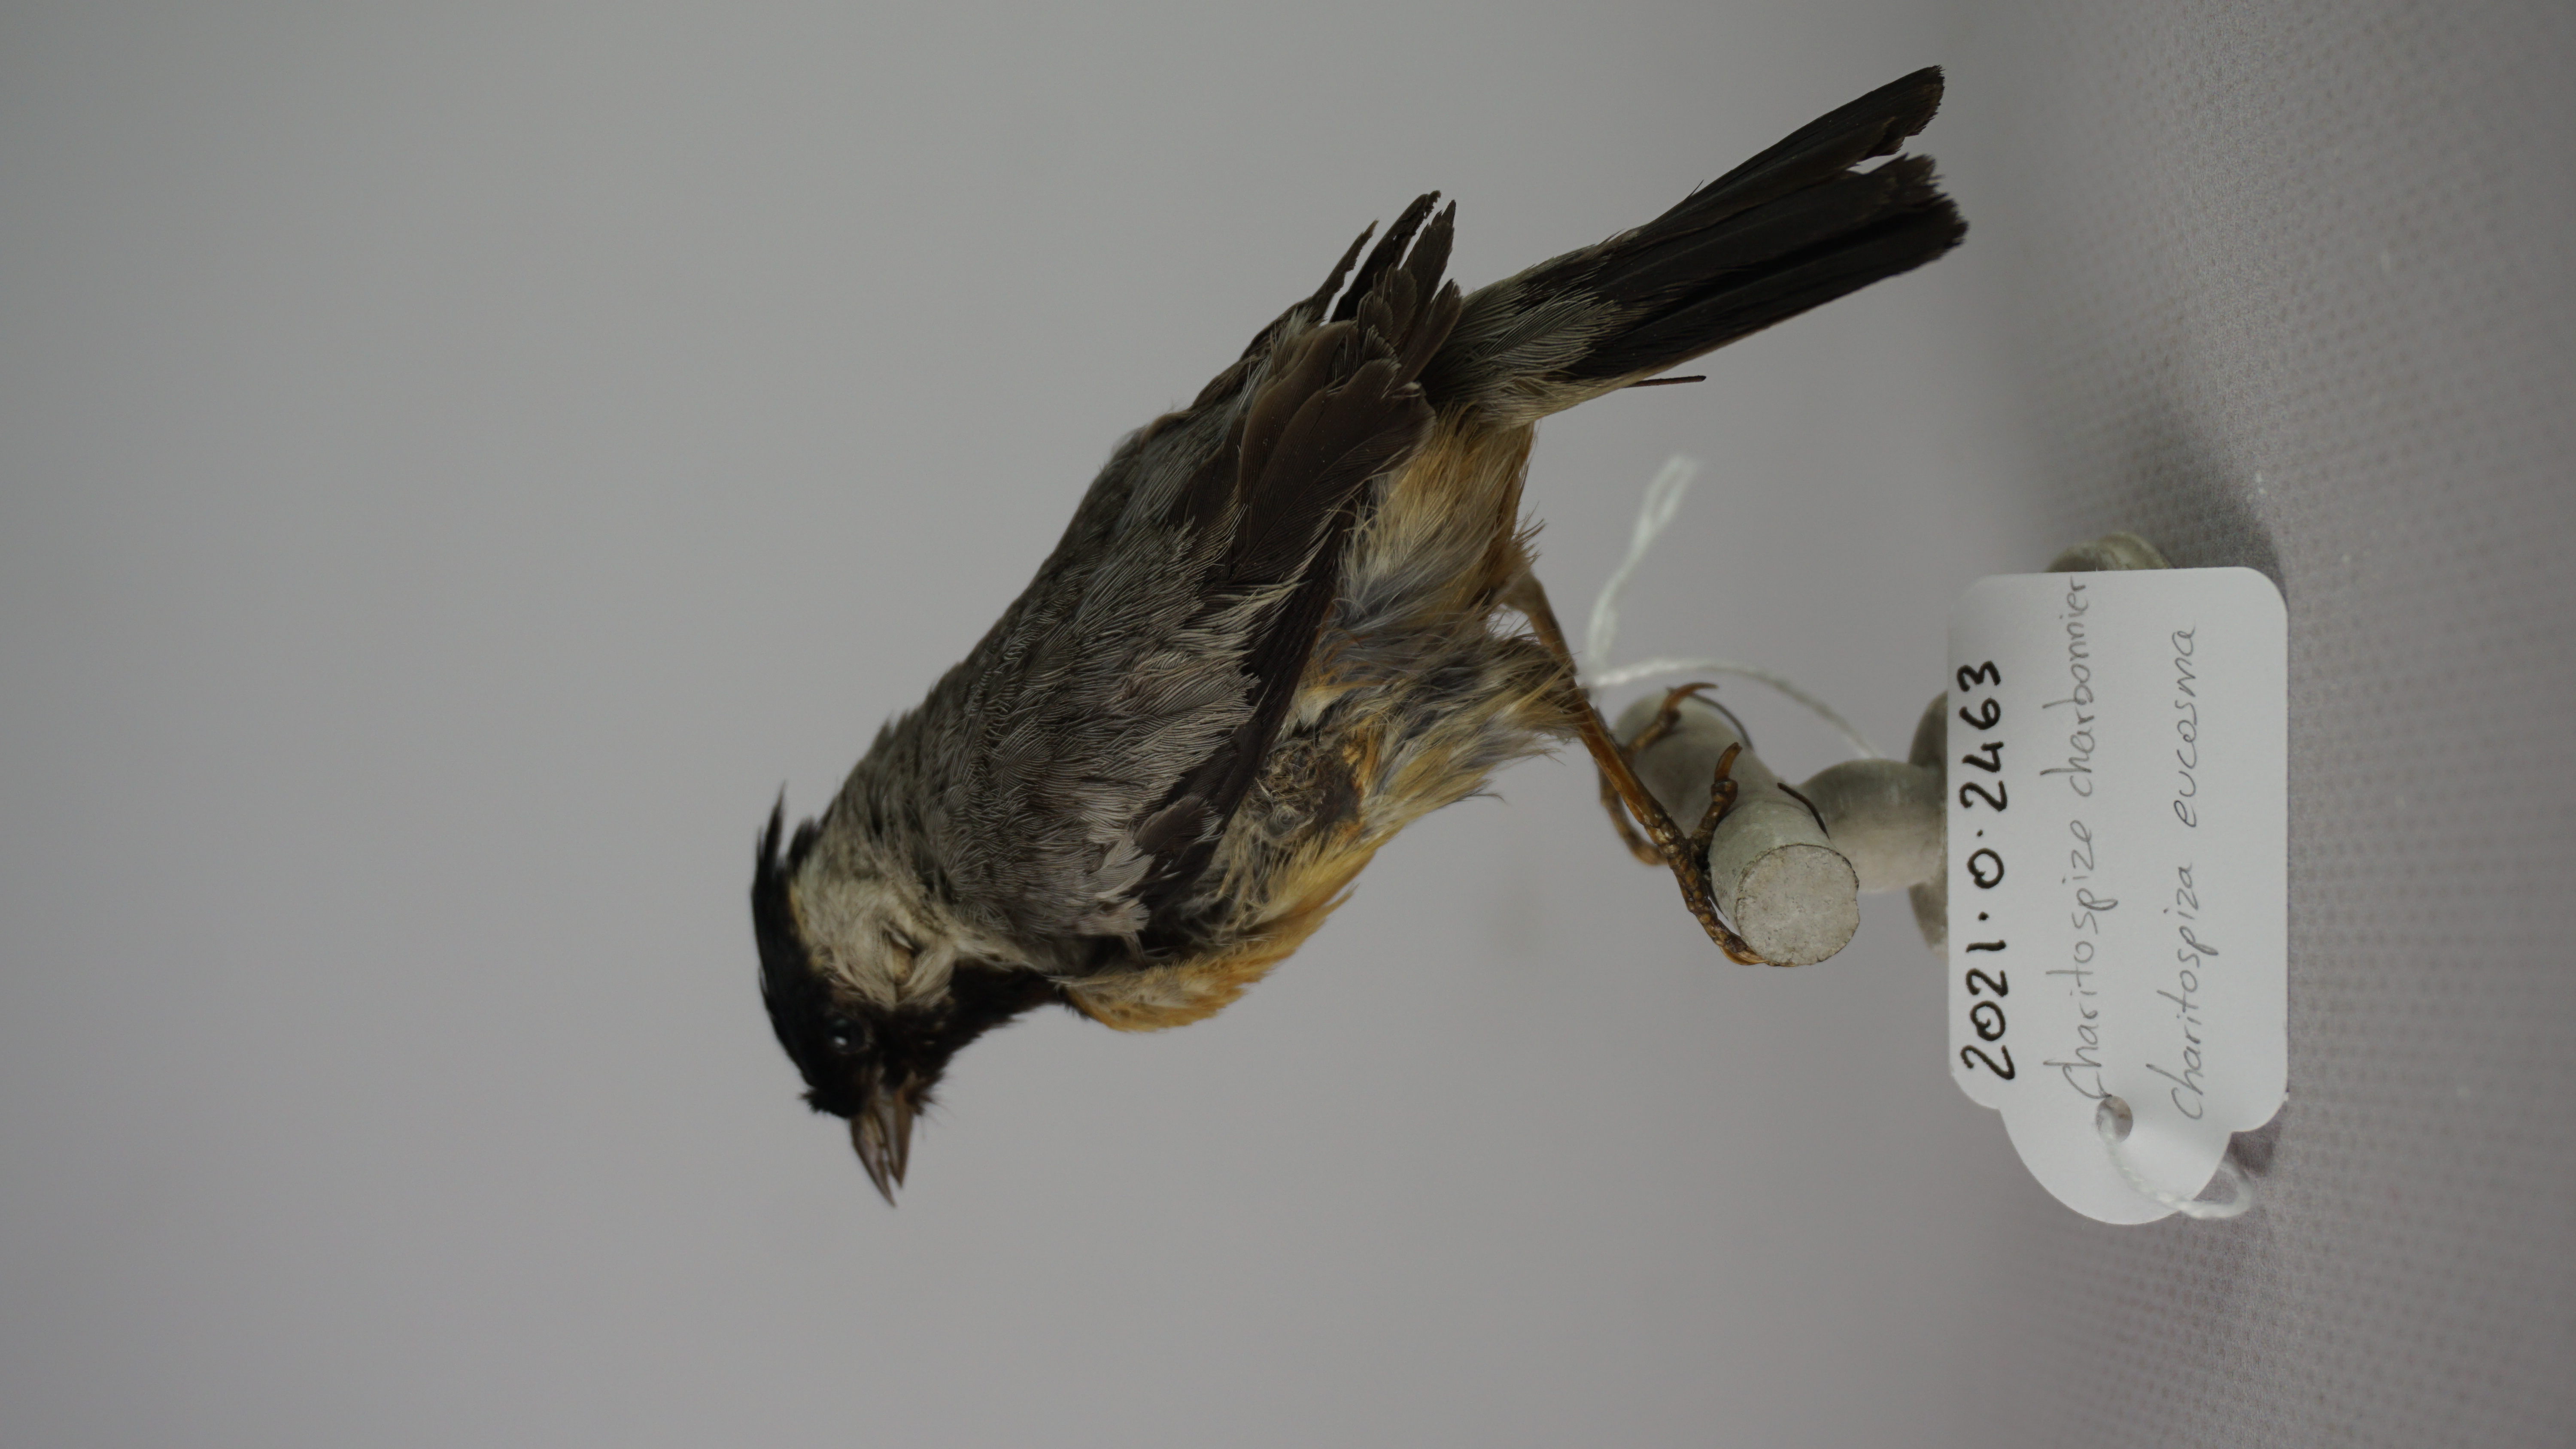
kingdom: Animalia
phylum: Chordata
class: Aves
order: Passeriformes
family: Thraupidae
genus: Charitospiza
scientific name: Charitospiza eucosma
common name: Coal-crested finch
